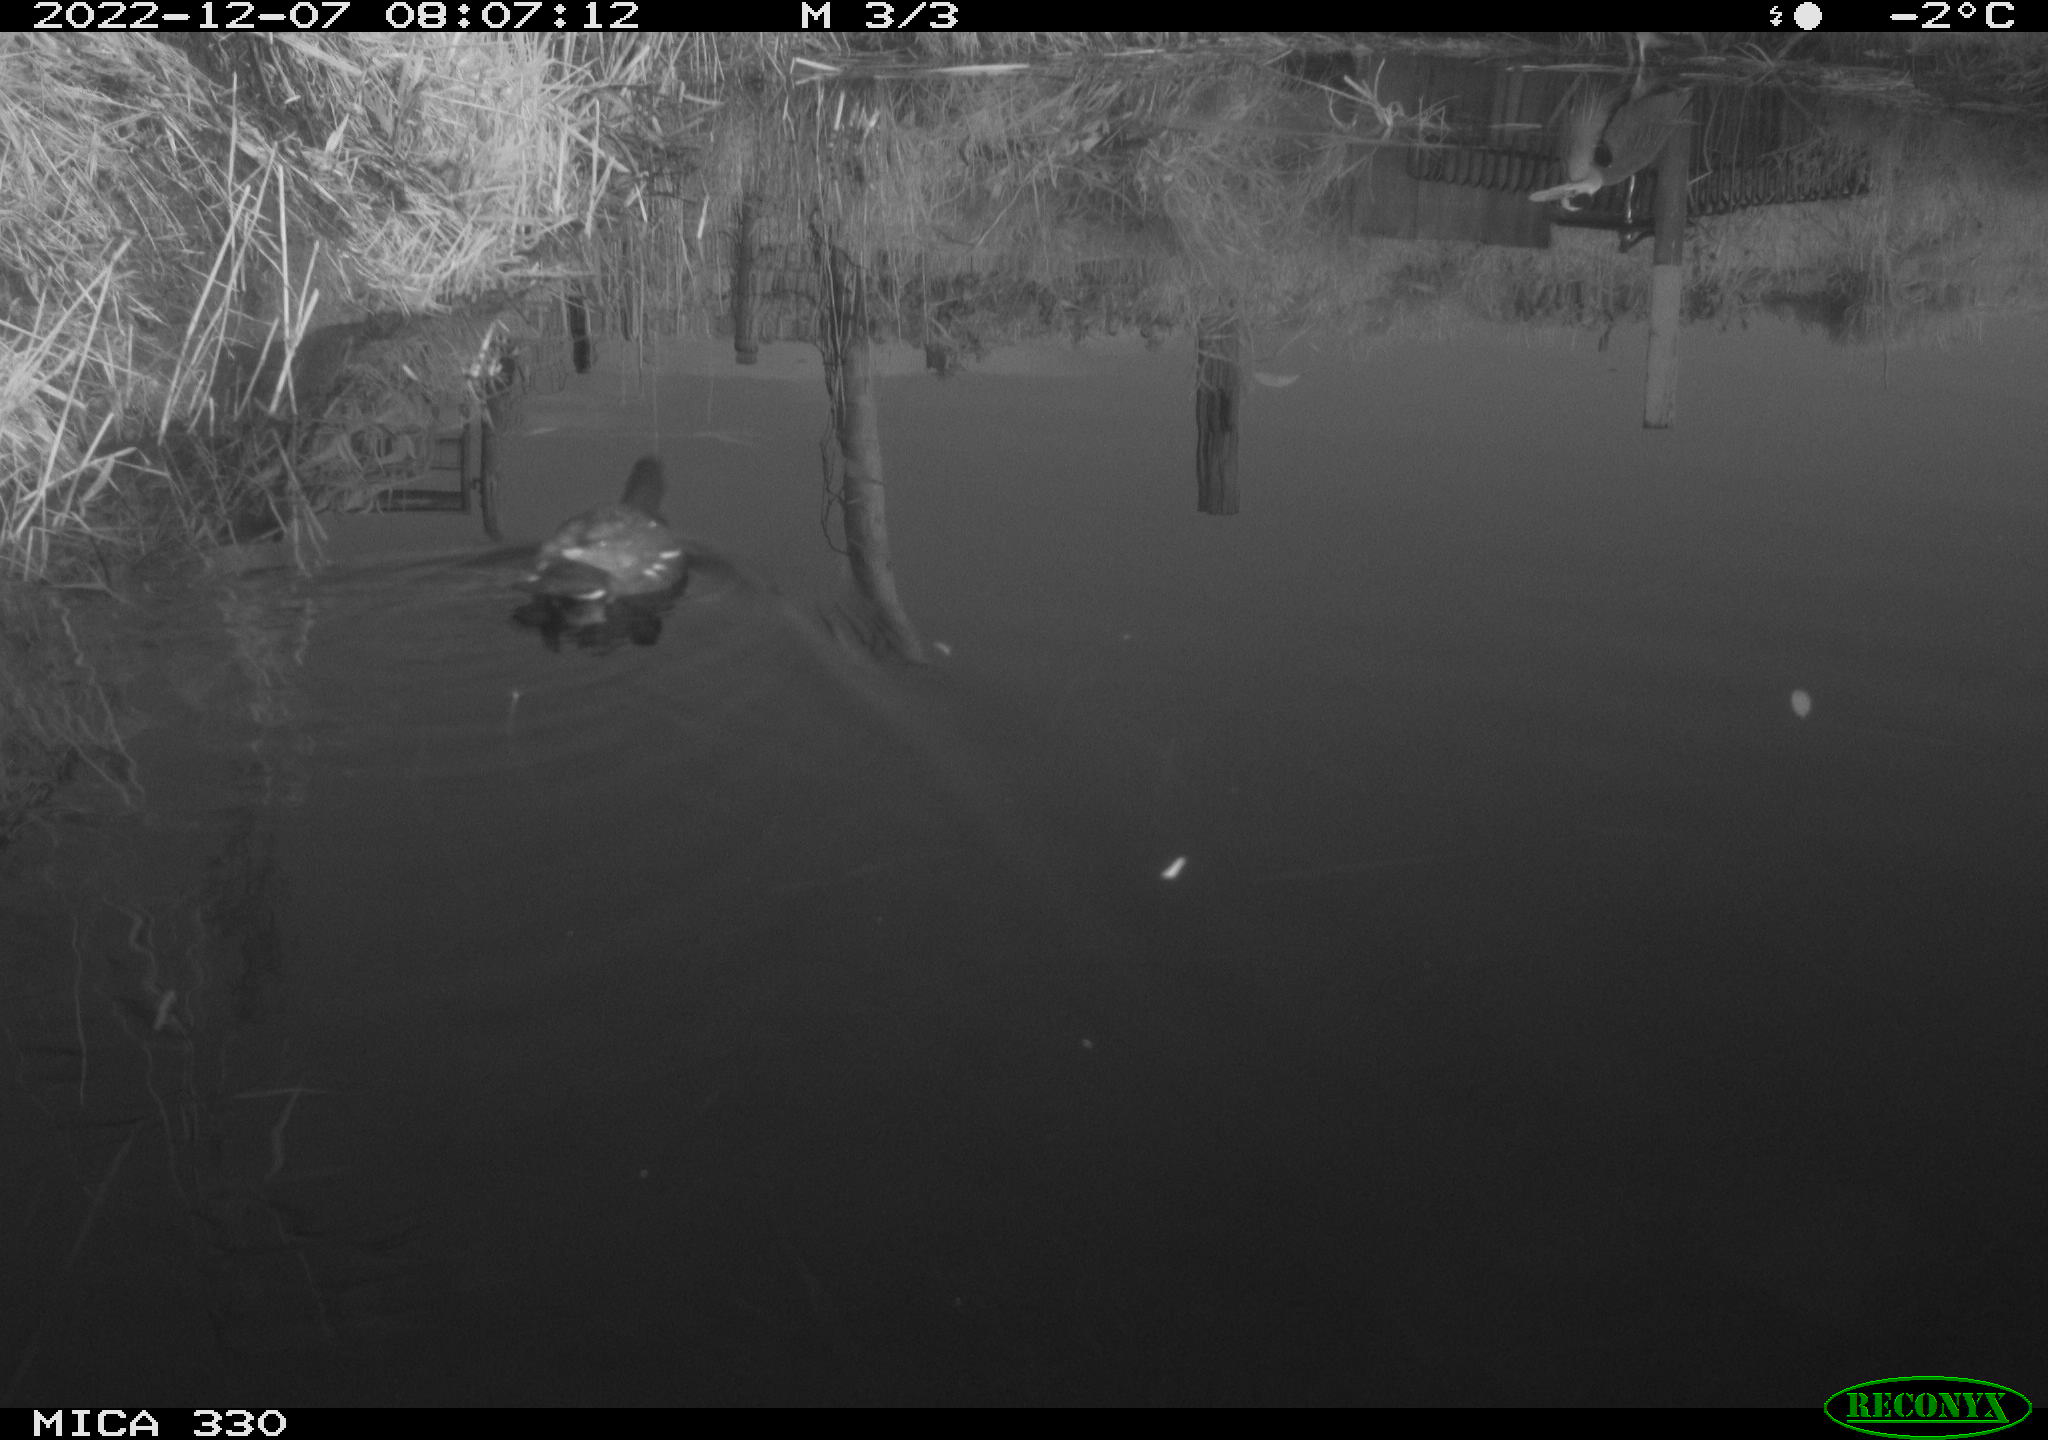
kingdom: Animalia
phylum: Chordata
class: Aves
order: Gruiformes
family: Rallidae
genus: Gallinula
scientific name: Gallinula chloropus
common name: Common moorhen
